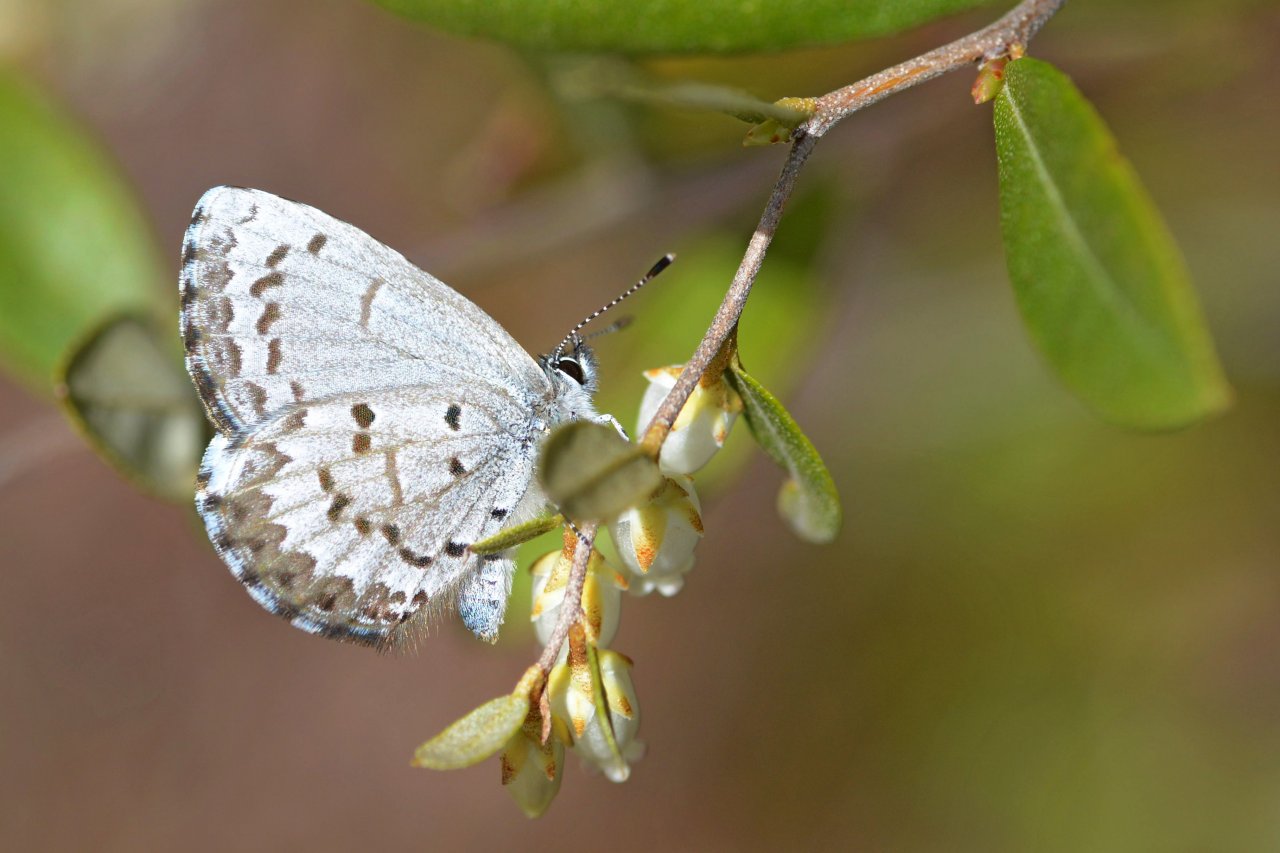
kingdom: Animalia
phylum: Arthropoda
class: Insecta
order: Lepidoptera
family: Lycaenidae
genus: Celastrina
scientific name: Celastrina lucia
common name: Northern Spring Azure
